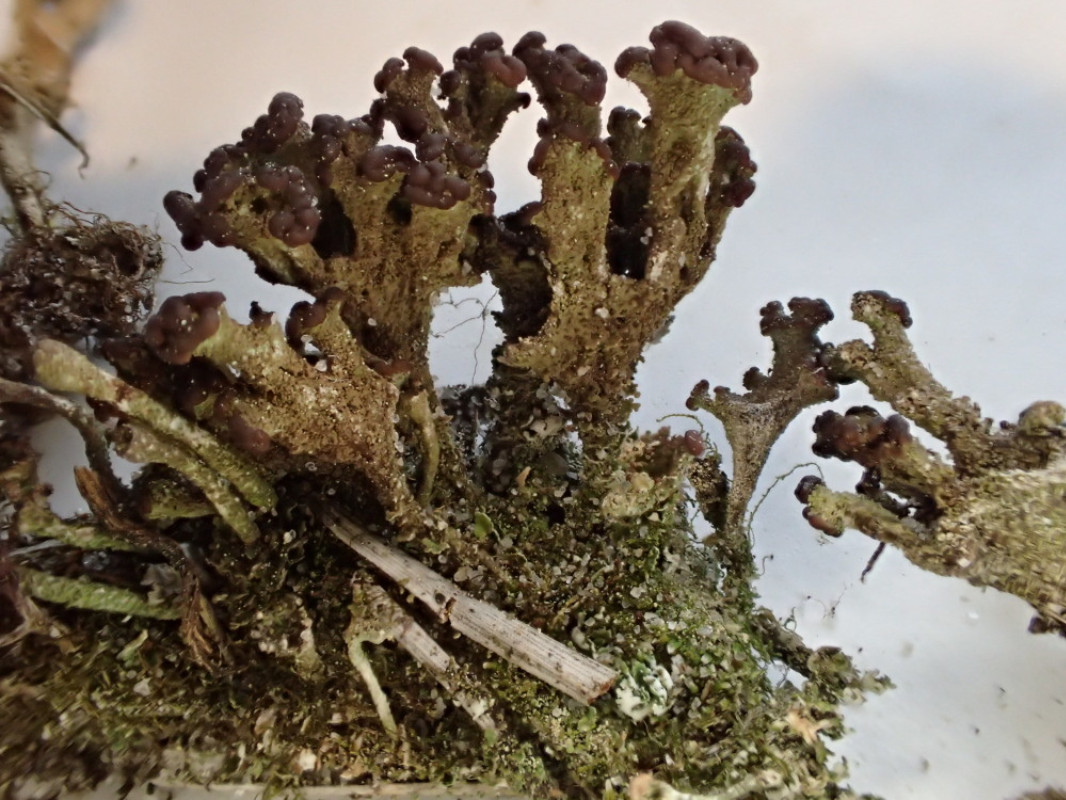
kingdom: Fungi
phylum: Ascomycota
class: Lecanoromycetes
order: Lecanorales
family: Cladoniaceae
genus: Cladonia
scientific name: Cladonia
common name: brungrøn bægerlav
